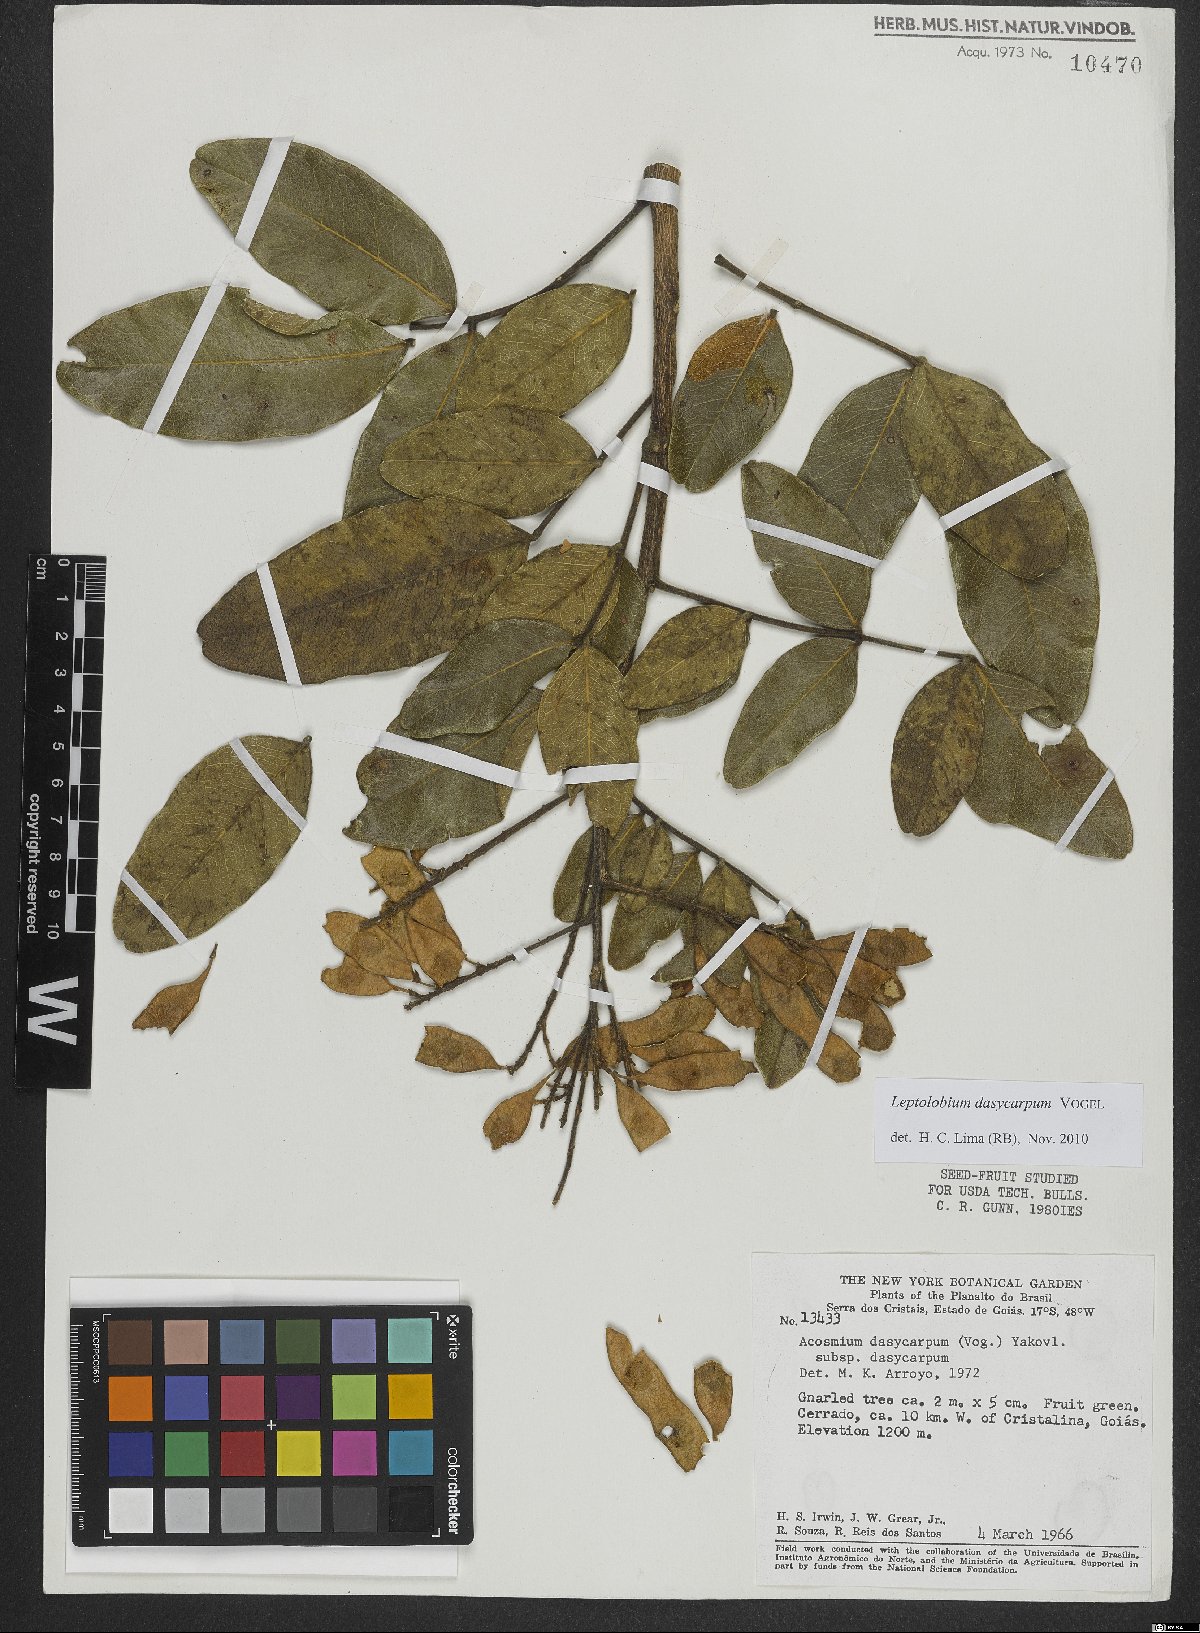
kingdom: Plantae
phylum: Tracheophyta
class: Magnoliopsida
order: Fabales
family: Fabaceae
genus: Leptolobium
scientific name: Leptolobium dasycarpum
